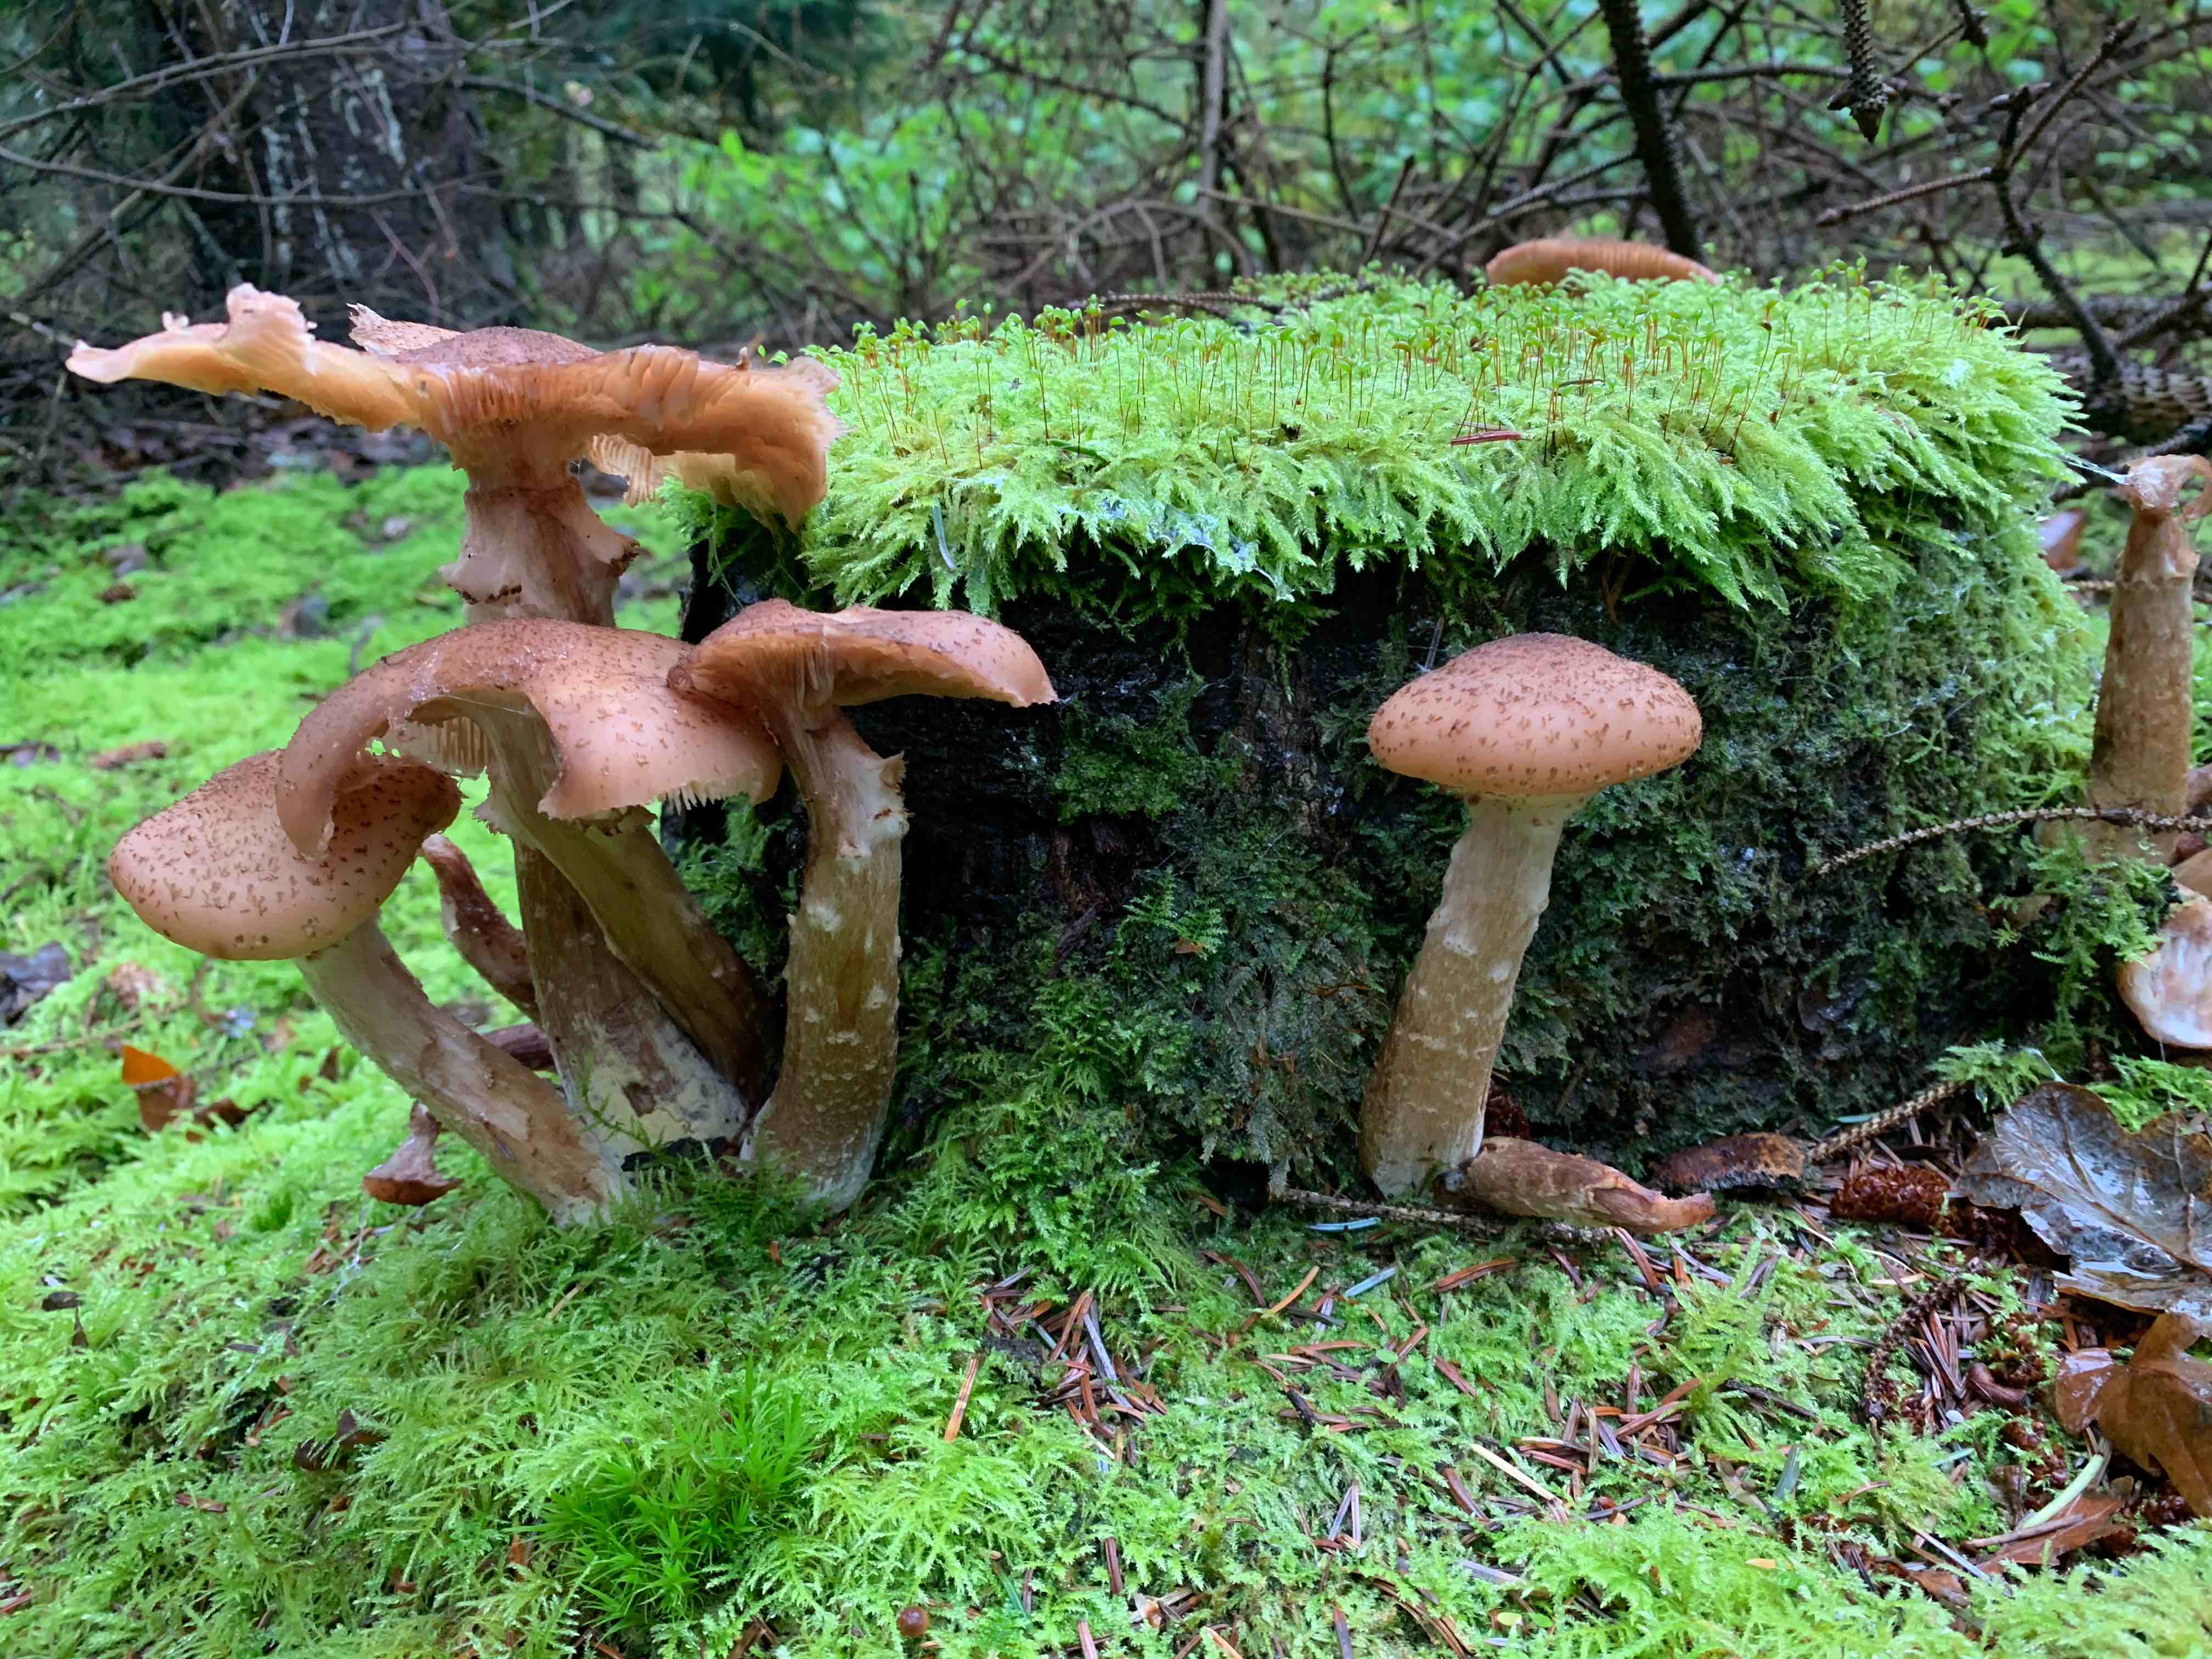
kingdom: Fungi
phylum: Basidiomycota
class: Agaricomycetes
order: Agaricales
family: Physalacriaceae
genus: Armillaria
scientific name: Armillaria ostoyae
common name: mørk honningsvamp
